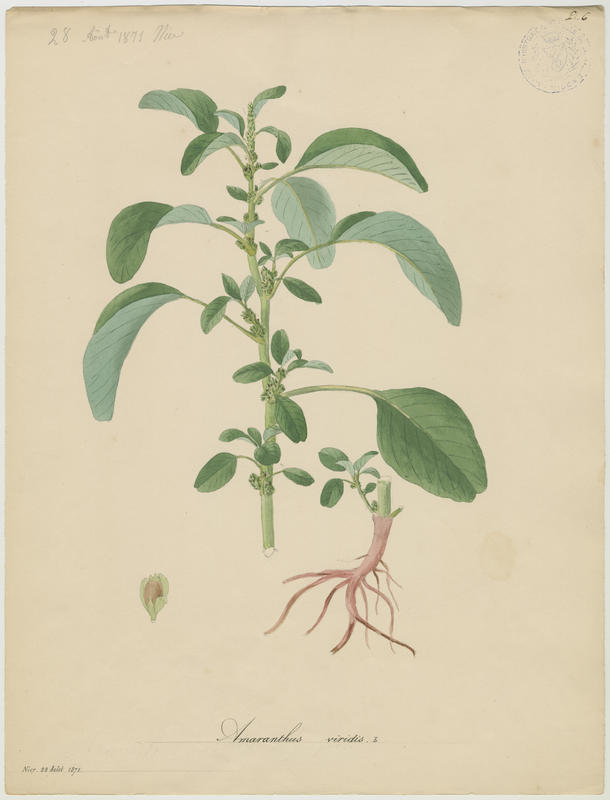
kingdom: Plantae
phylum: Tracheophyta
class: Magnoliopsida
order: Caryophyllales
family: Amaranthaceae
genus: Amaranthus
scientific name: Amaranthus viridis
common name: Slender amaranth
